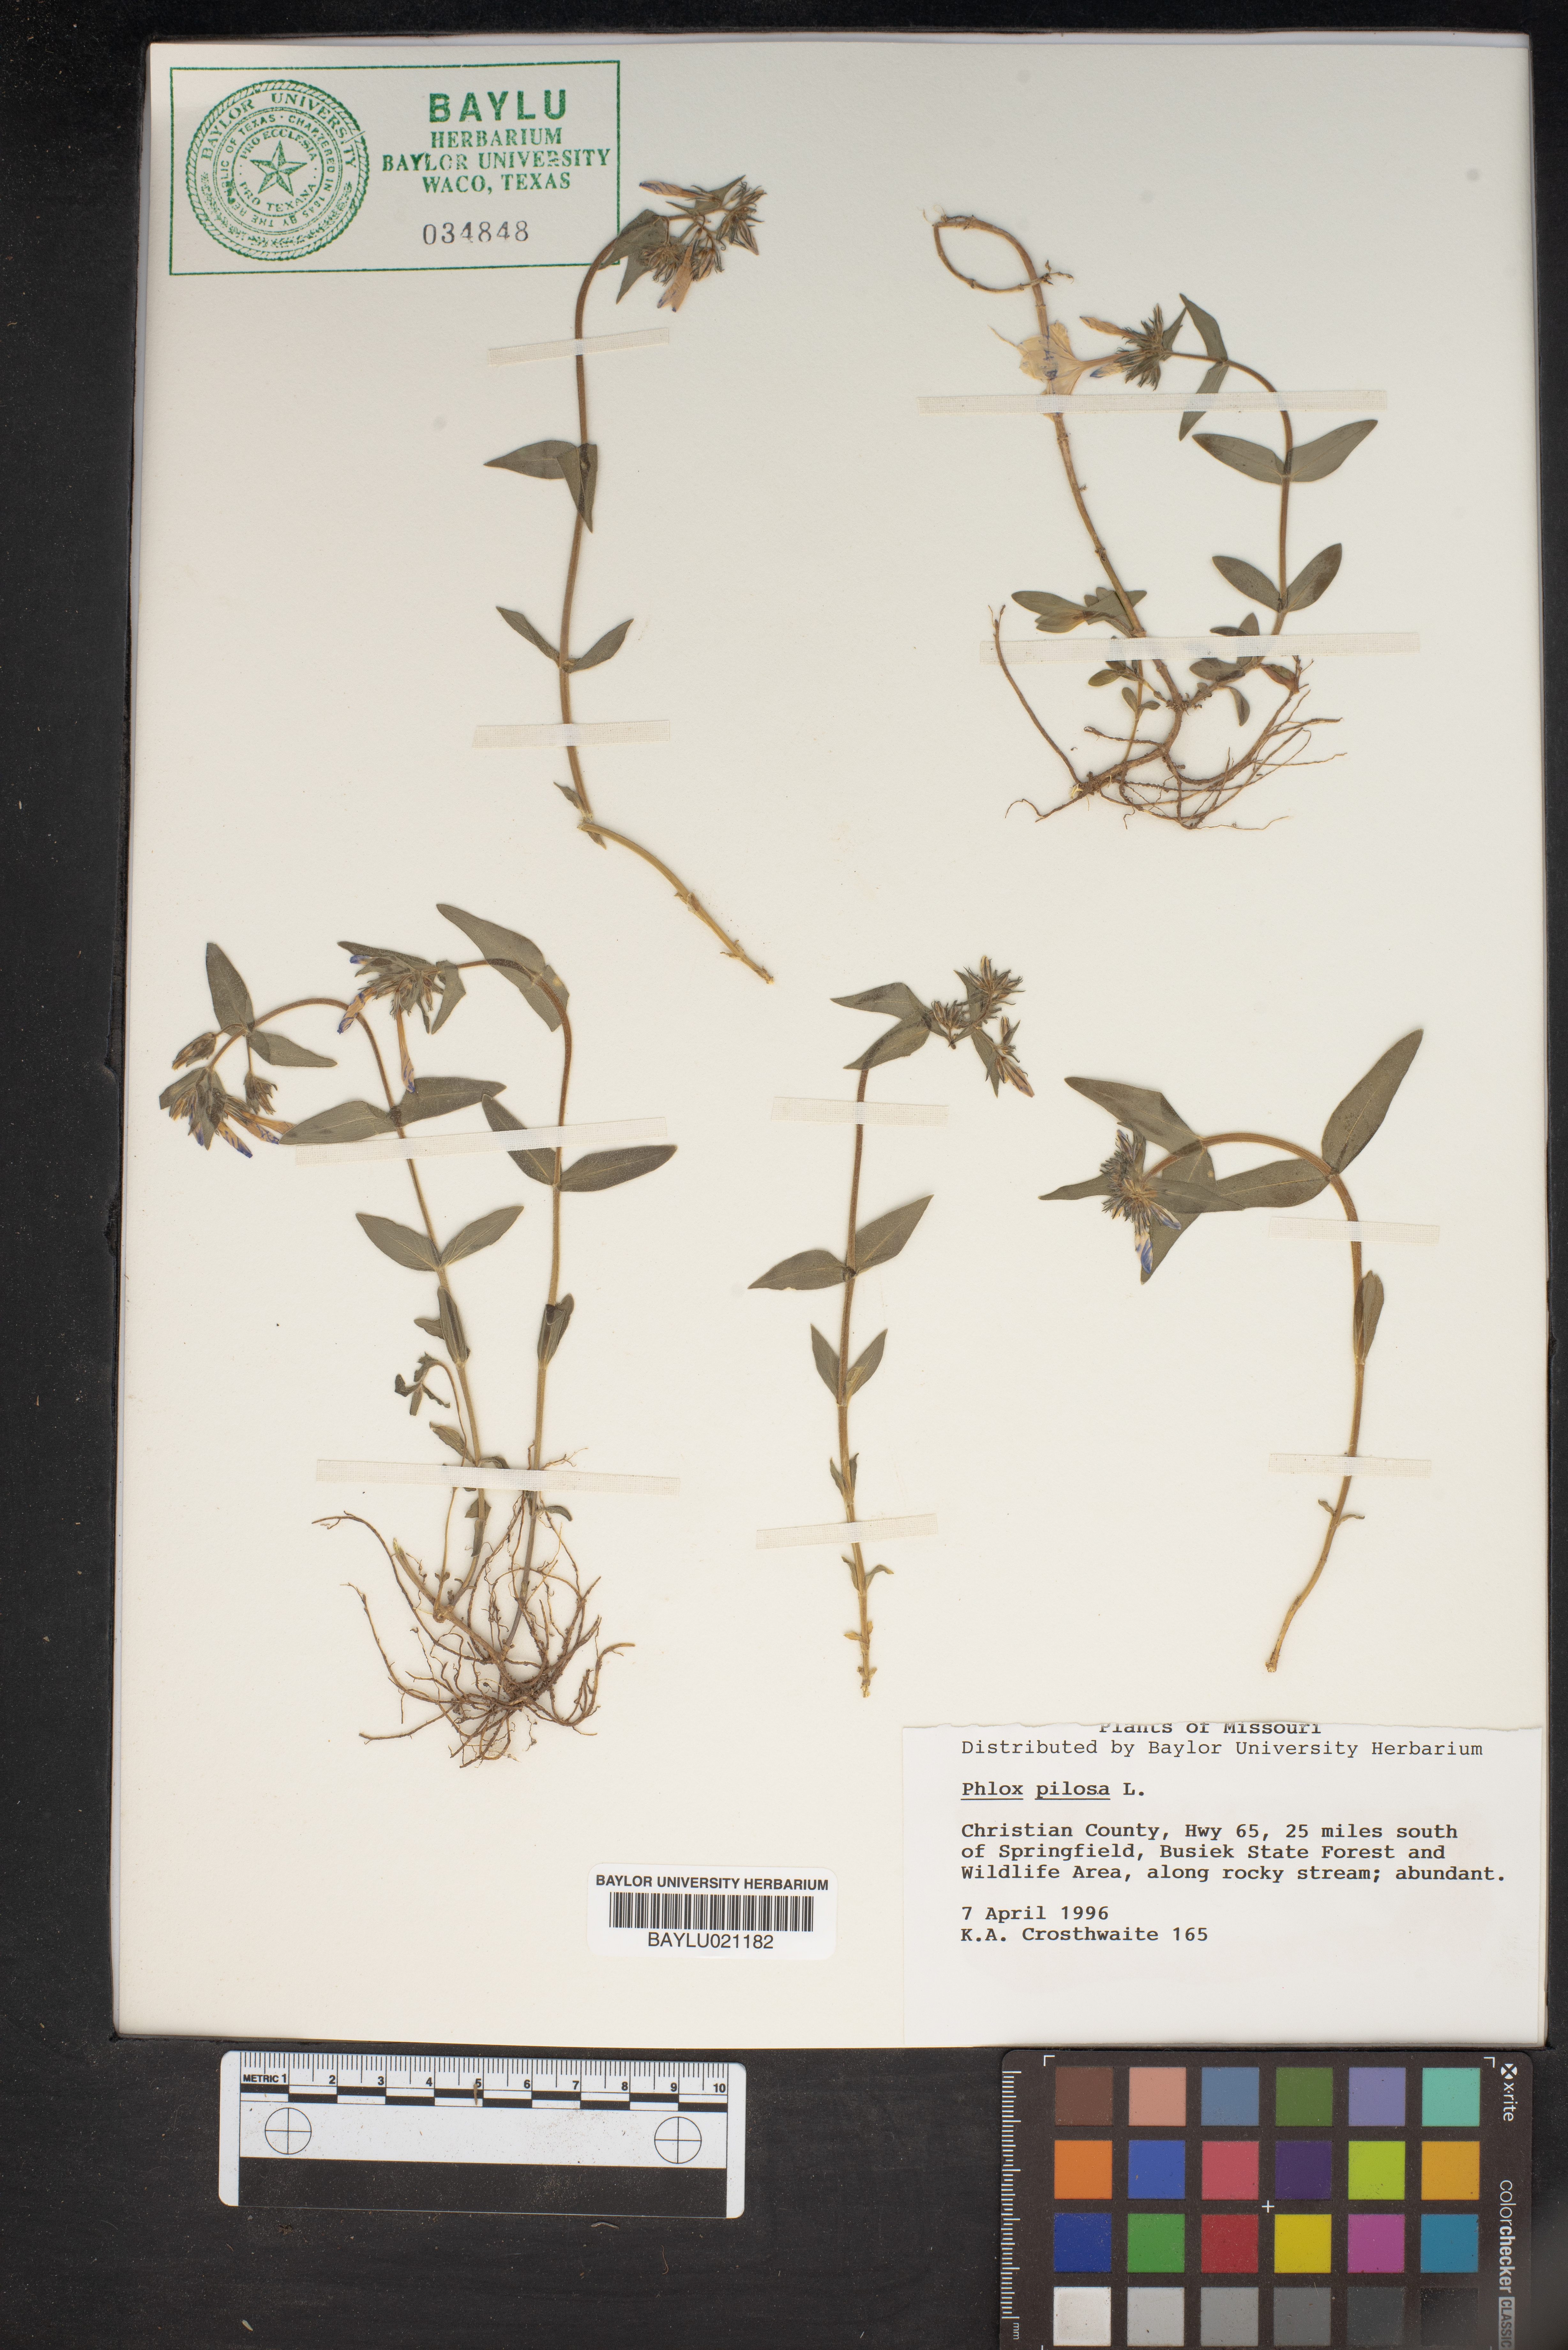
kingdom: Plantae
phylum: Tracheophyta
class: Magnoliopsida
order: Ericales
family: Polemoniaceae
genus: Phlox
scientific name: Phlox pilosa
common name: Prairie phlox
